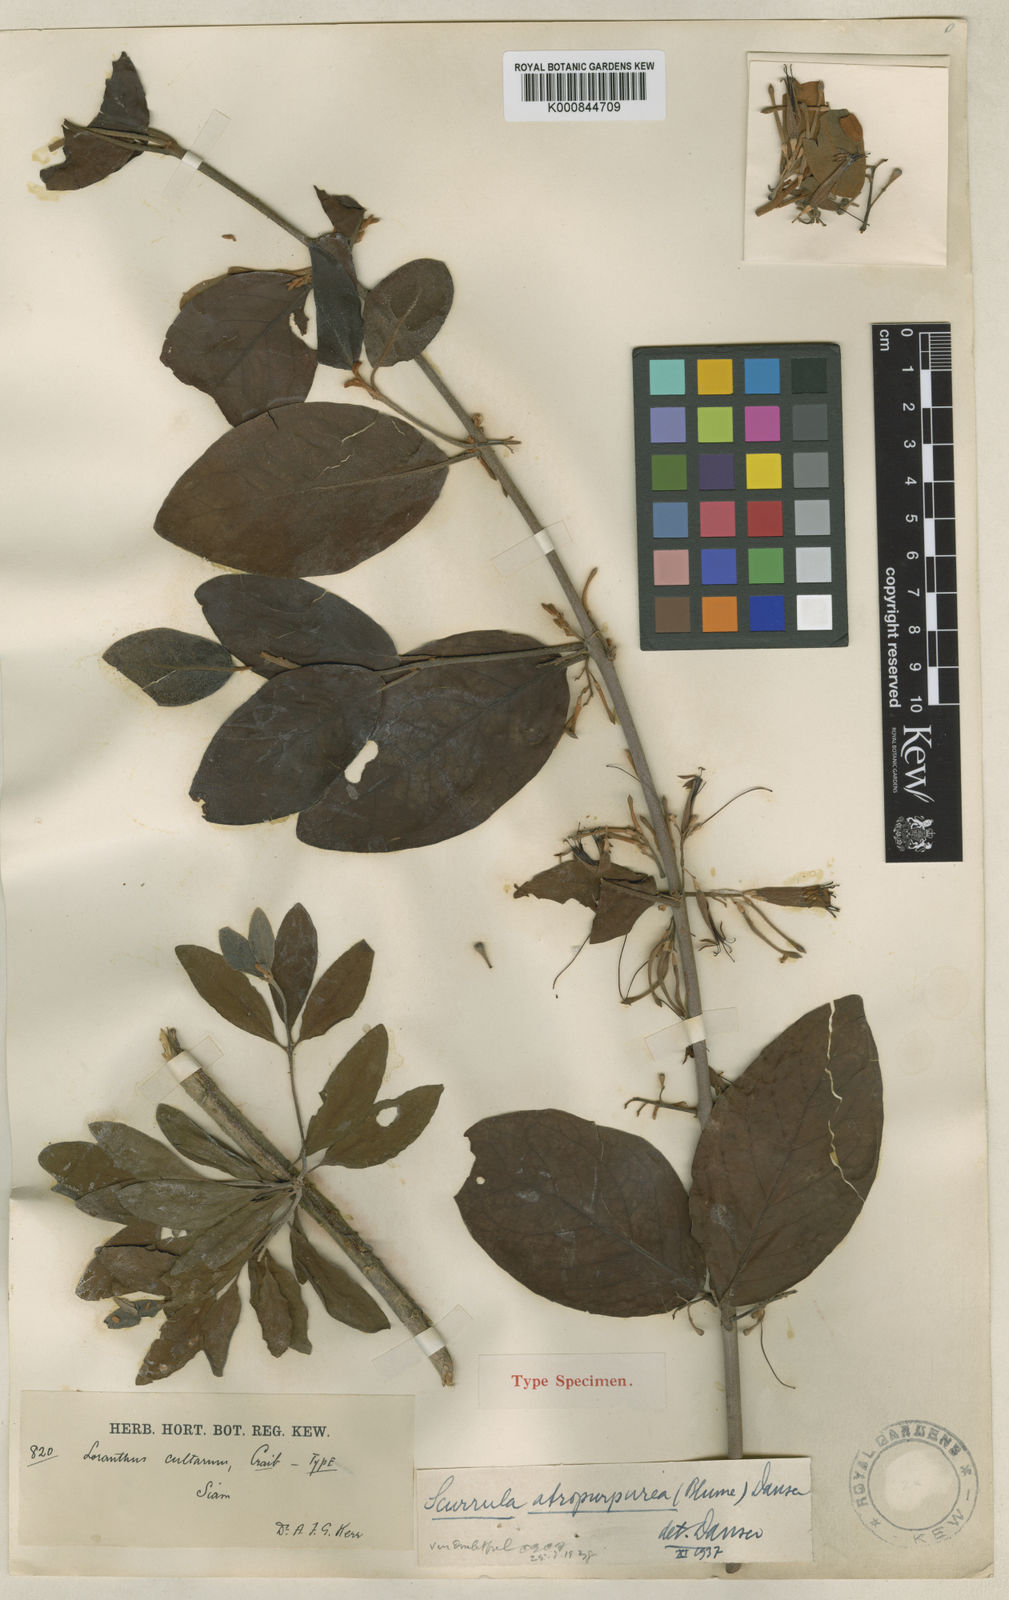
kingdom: Plantae
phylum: Tracheophyta
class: Magnoliopsida
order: Santalales
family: Loranthaceae
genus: Scurrula
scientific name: Scurrula atropurpurea
